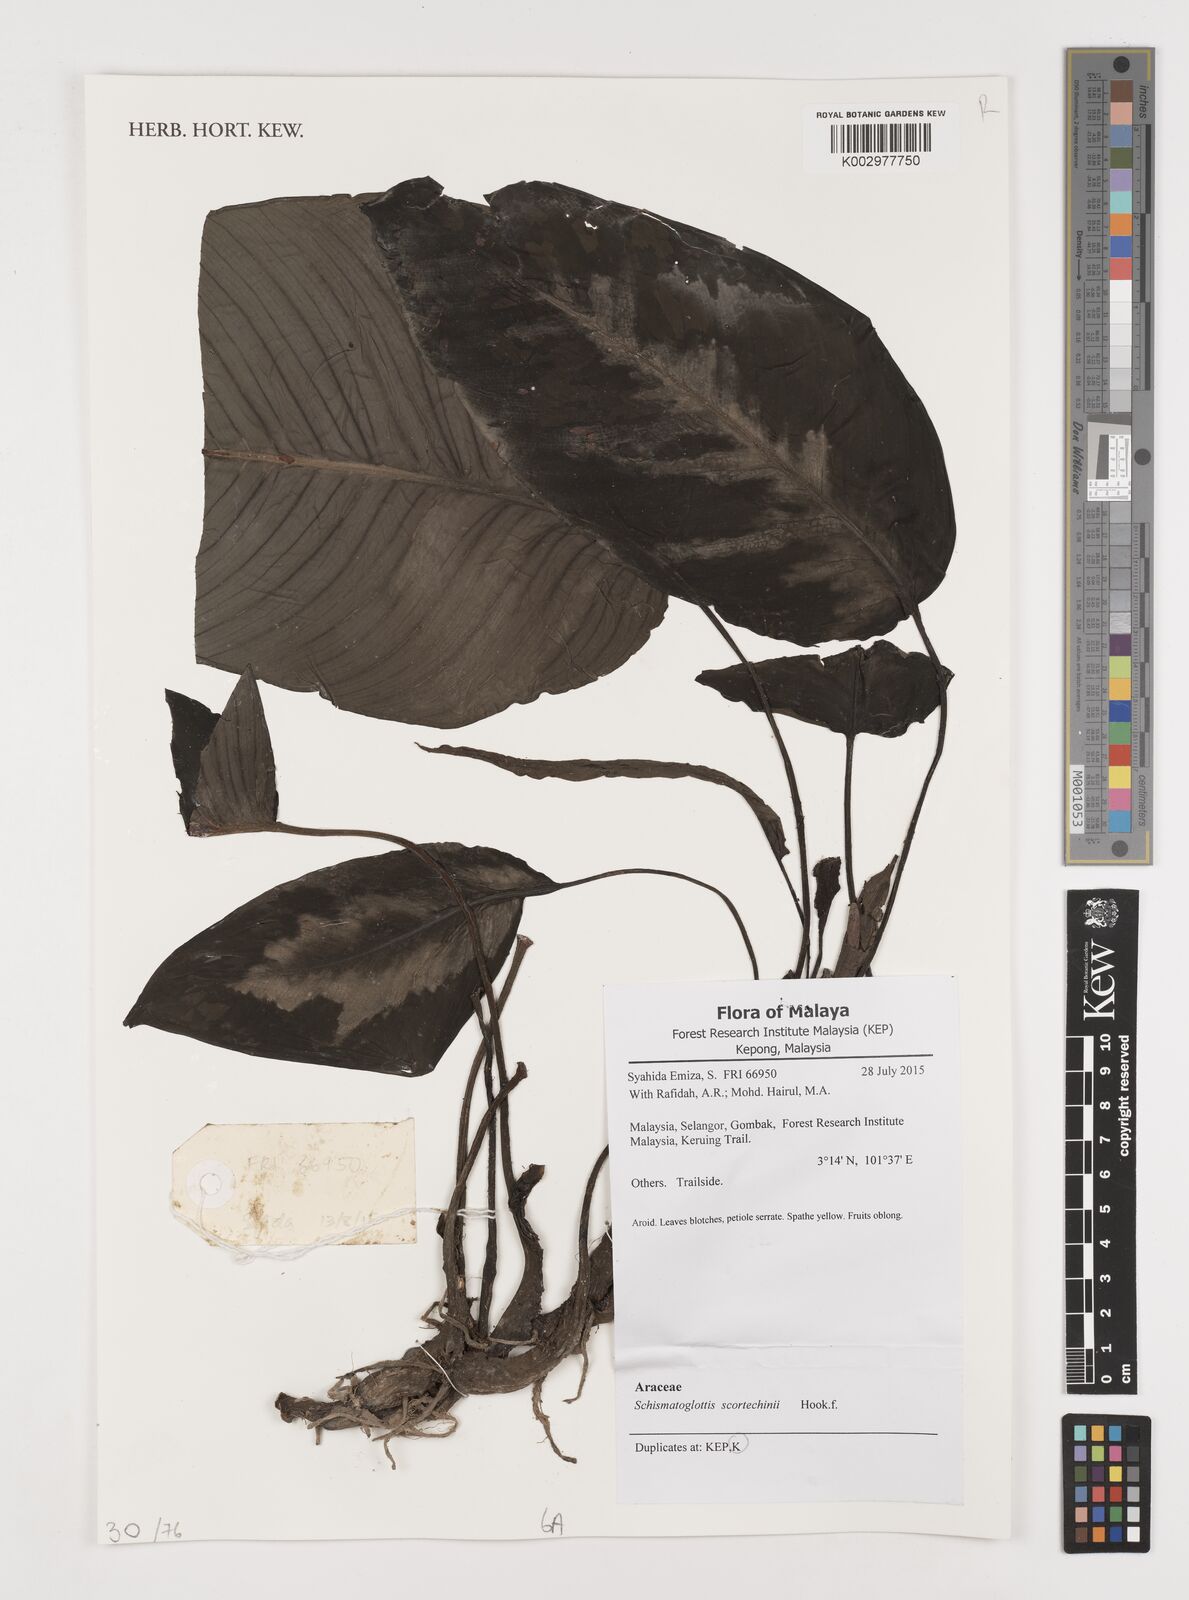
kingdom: Plantae
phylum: Tracheophyta
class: Liliopsida
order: Alismatales
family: Araceae
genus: Schismatoglottis
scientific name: Schismatoglottis scortechinii
